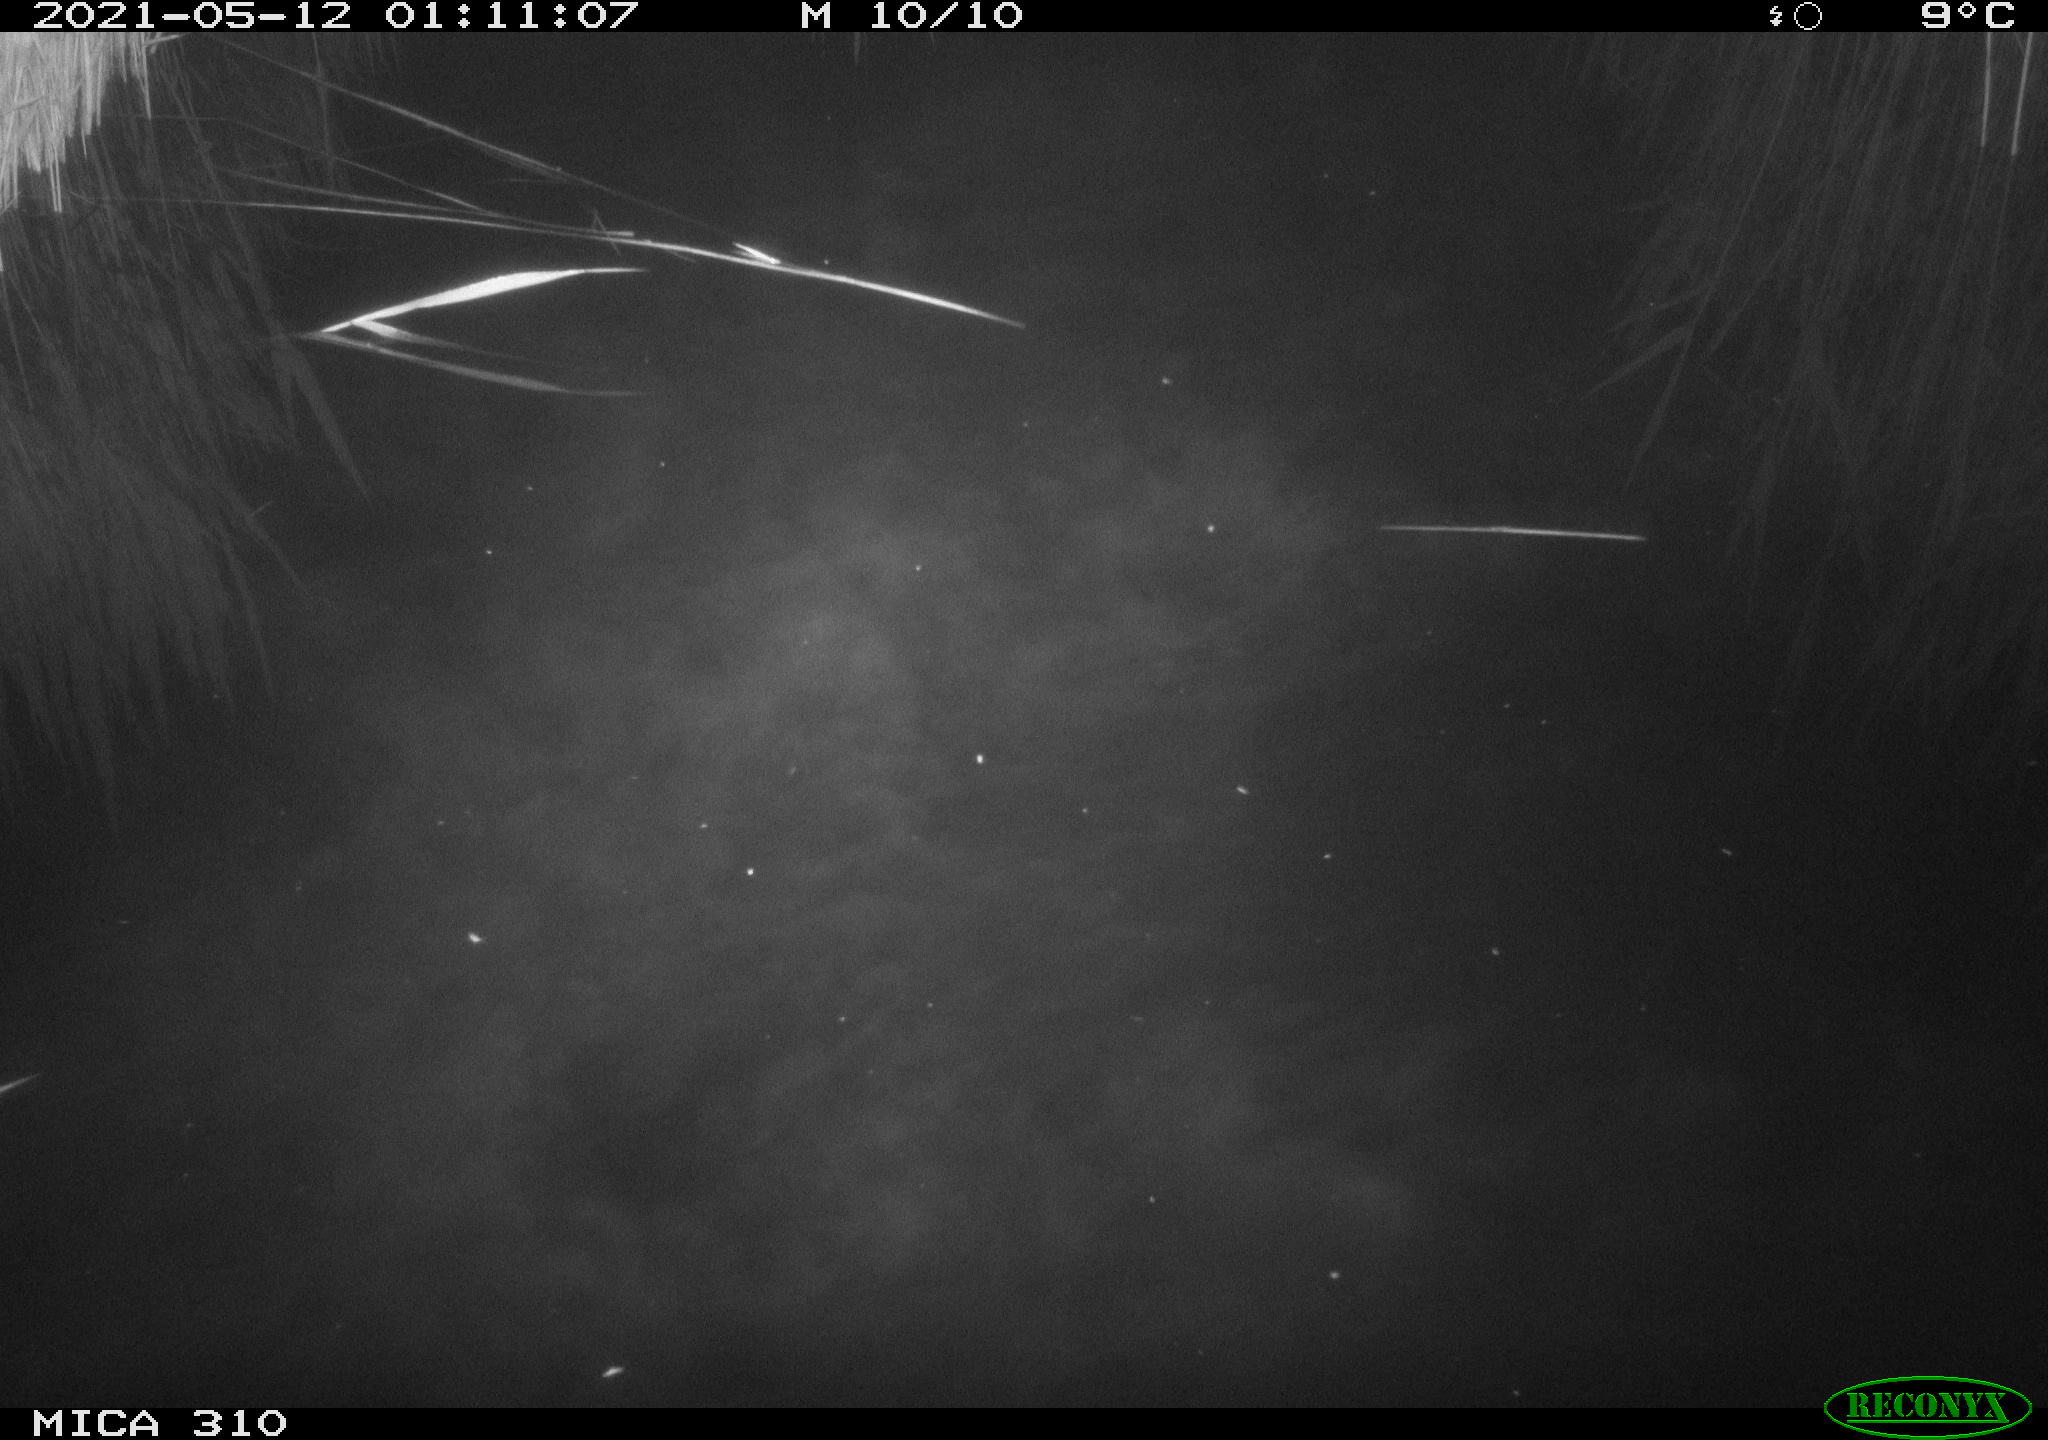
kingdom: Animalia
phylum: Chordata
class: Aves
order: Anseriformes
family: Anatidae
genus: Anas
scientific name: Anas platyrhynchos
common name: Mallard
